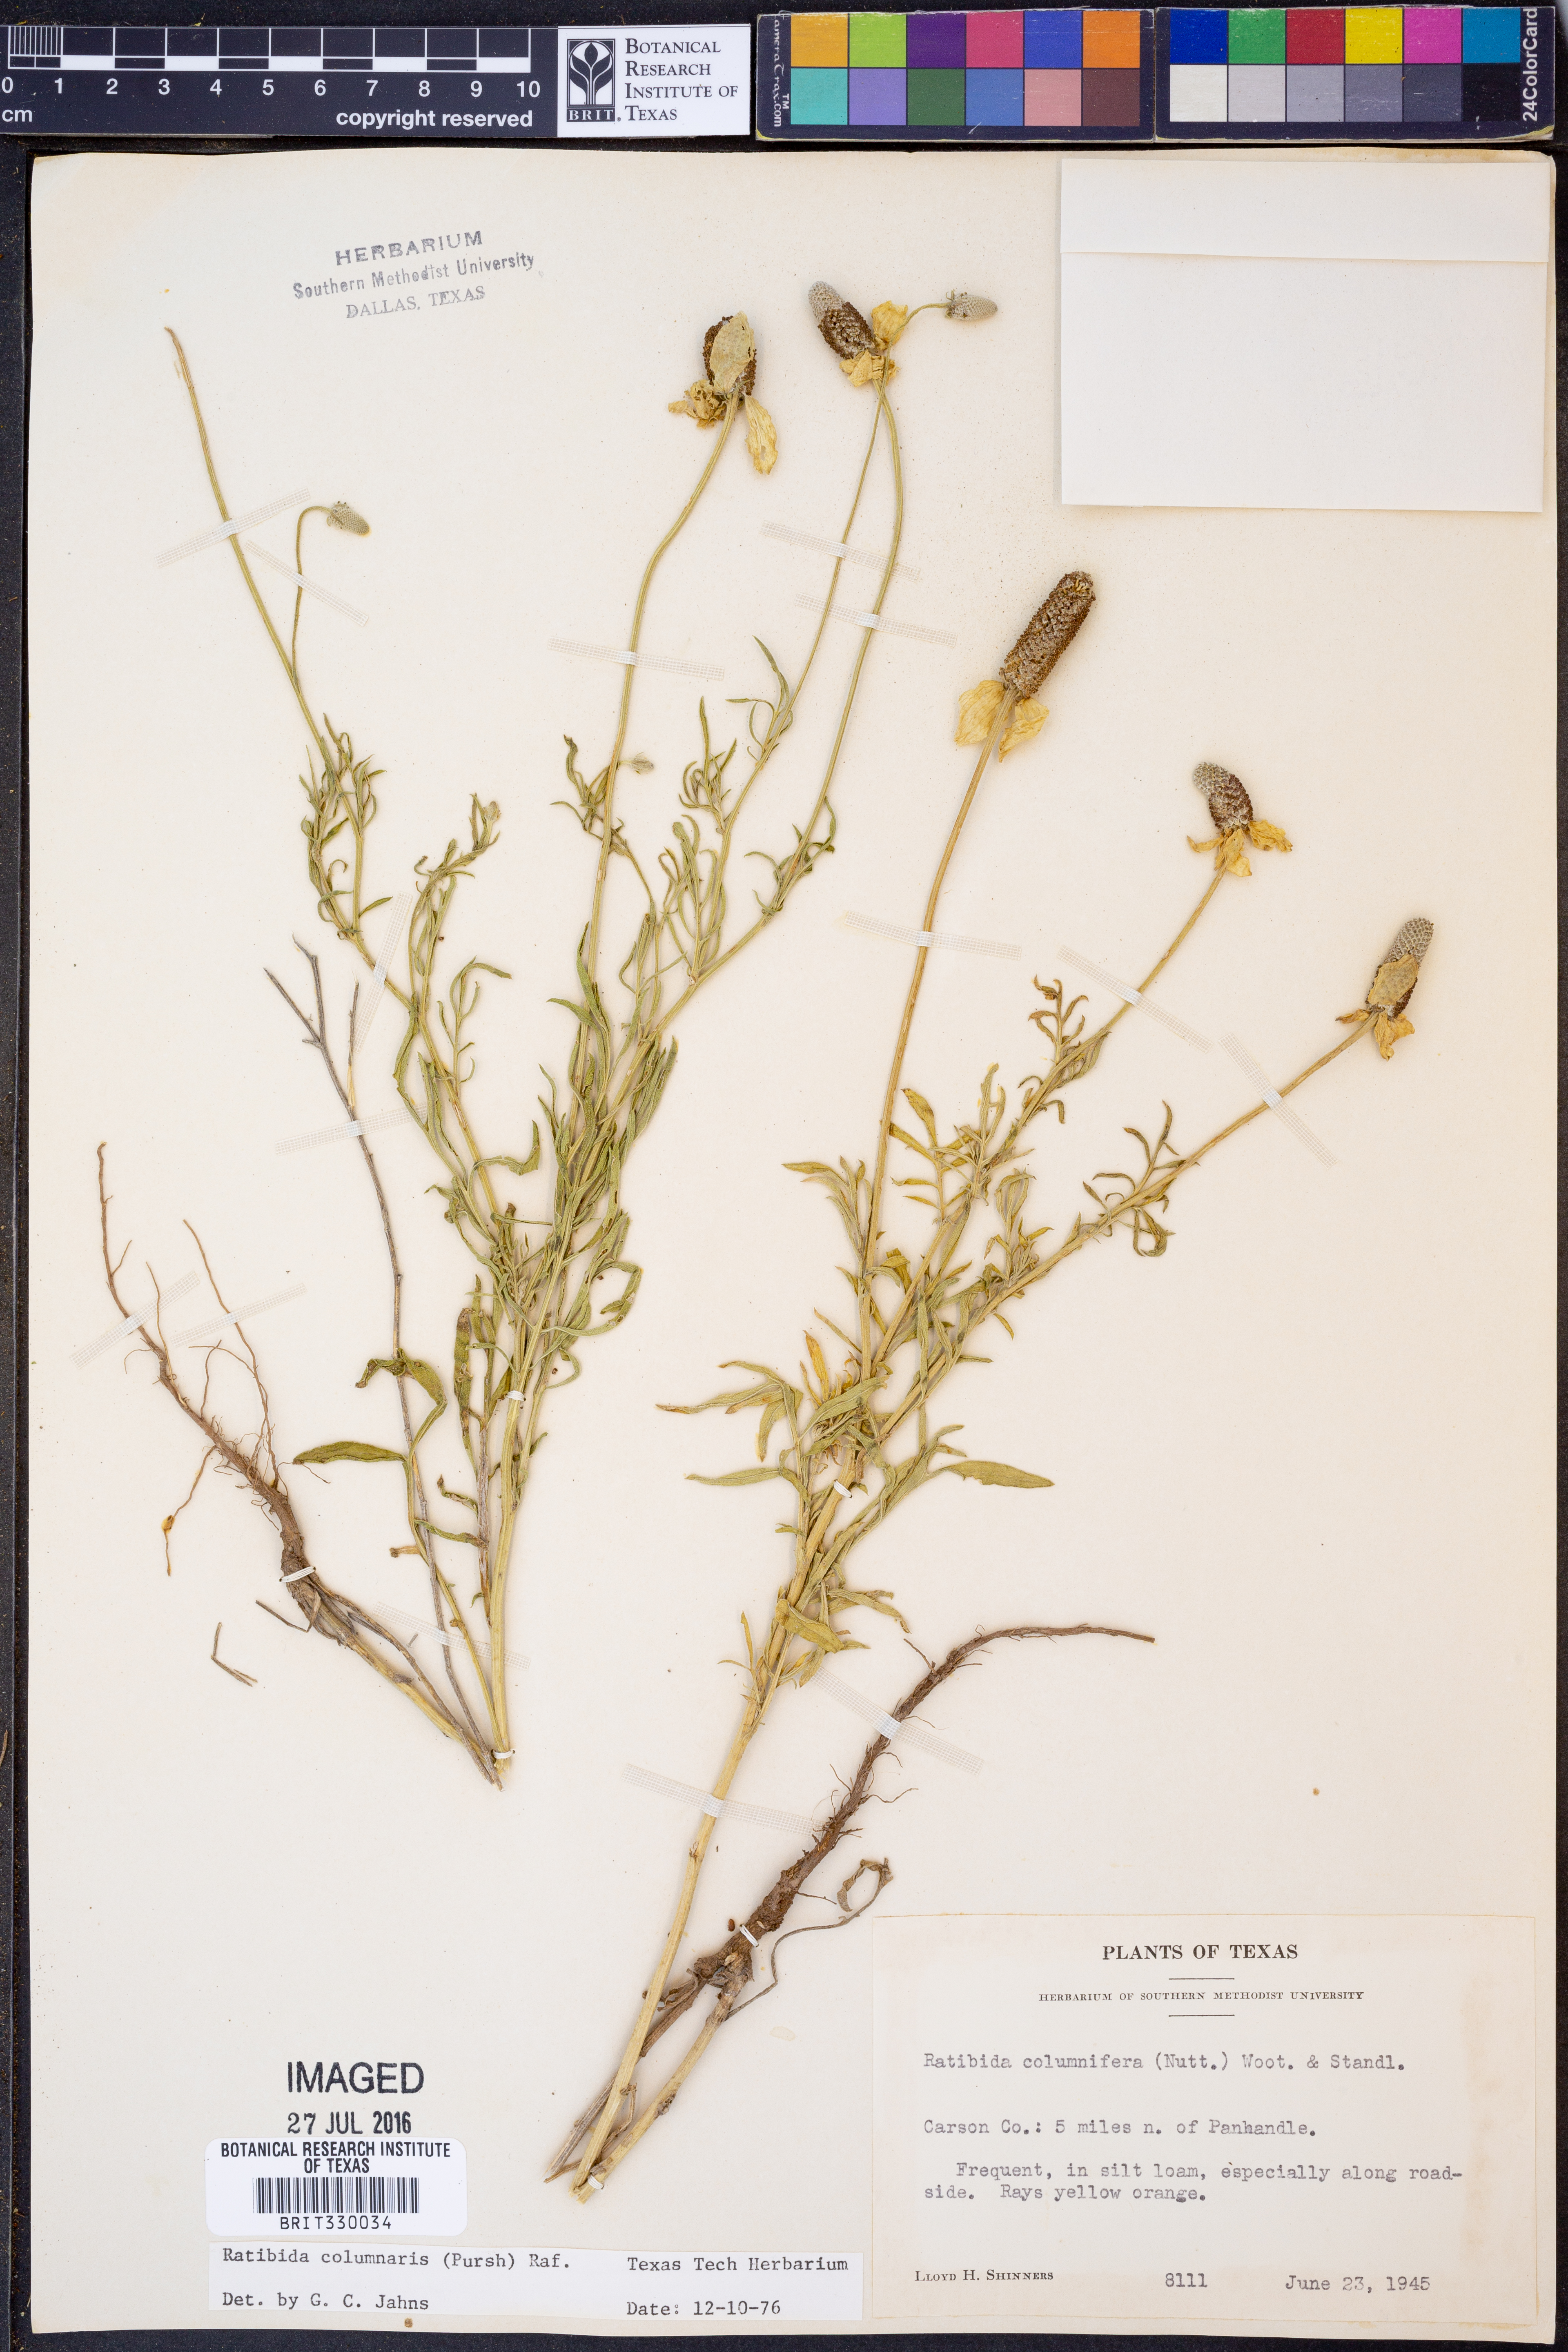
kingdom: Plantae
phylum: Tracheophyta
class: Magnoliopsida
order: Asterales
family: Asteraceae
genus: Ratibida
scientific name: Ratibida columnifera
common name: Prairie coneflower
